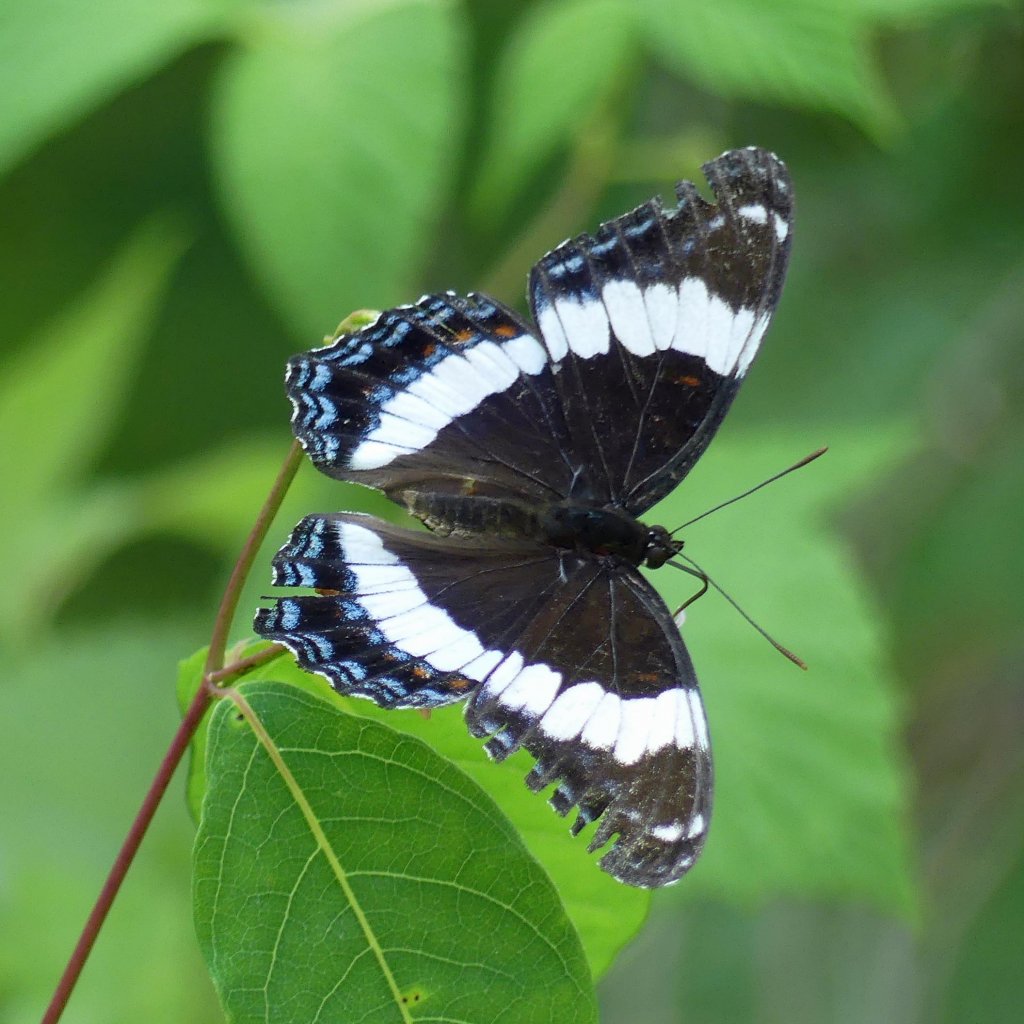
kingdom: Animalia
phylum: Arthropoda
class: Insecta
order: Lepidoptera
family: Nymphalidae
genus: Limenitis
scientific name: Limenitis arthemis
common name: Red-spotted Admiral
